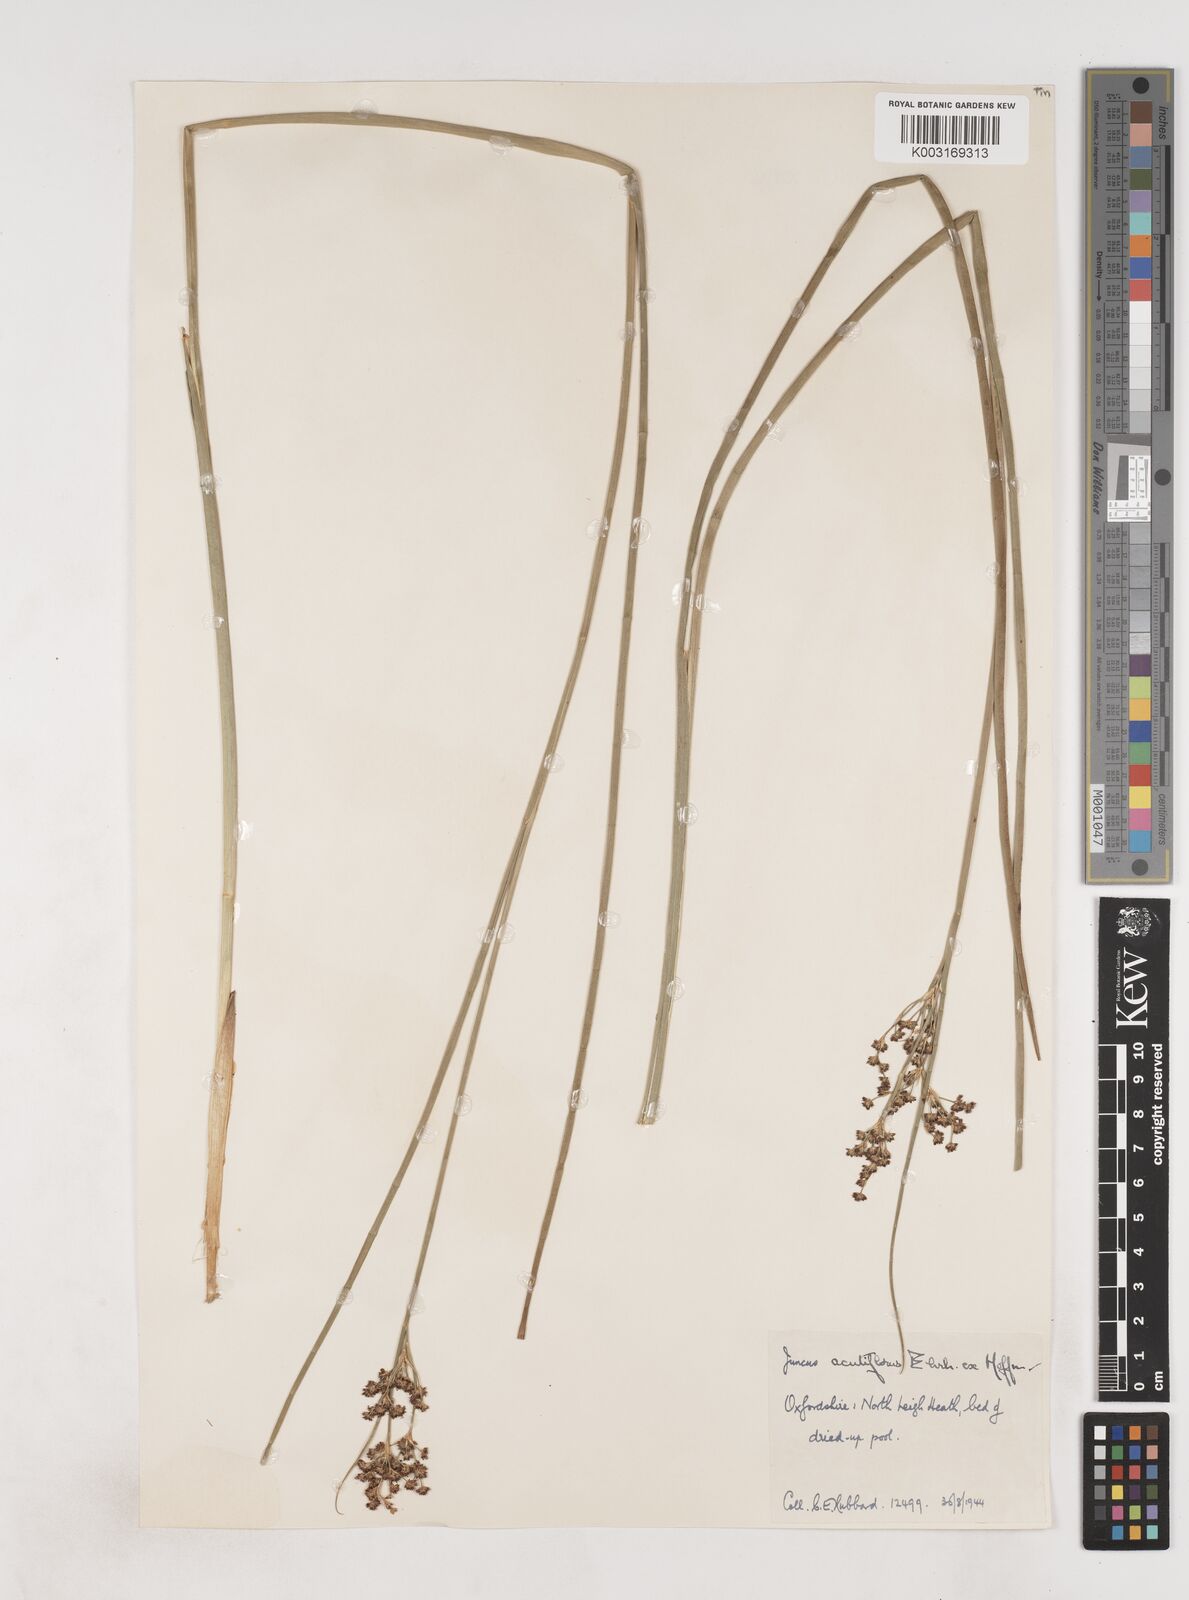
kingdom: Plantae
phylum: Tracheophyta
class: Liliopsida
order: Poales
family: Juncaceae
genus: Juncus
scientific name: Juncus acutiflorus
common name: Sharp-flowered rush
